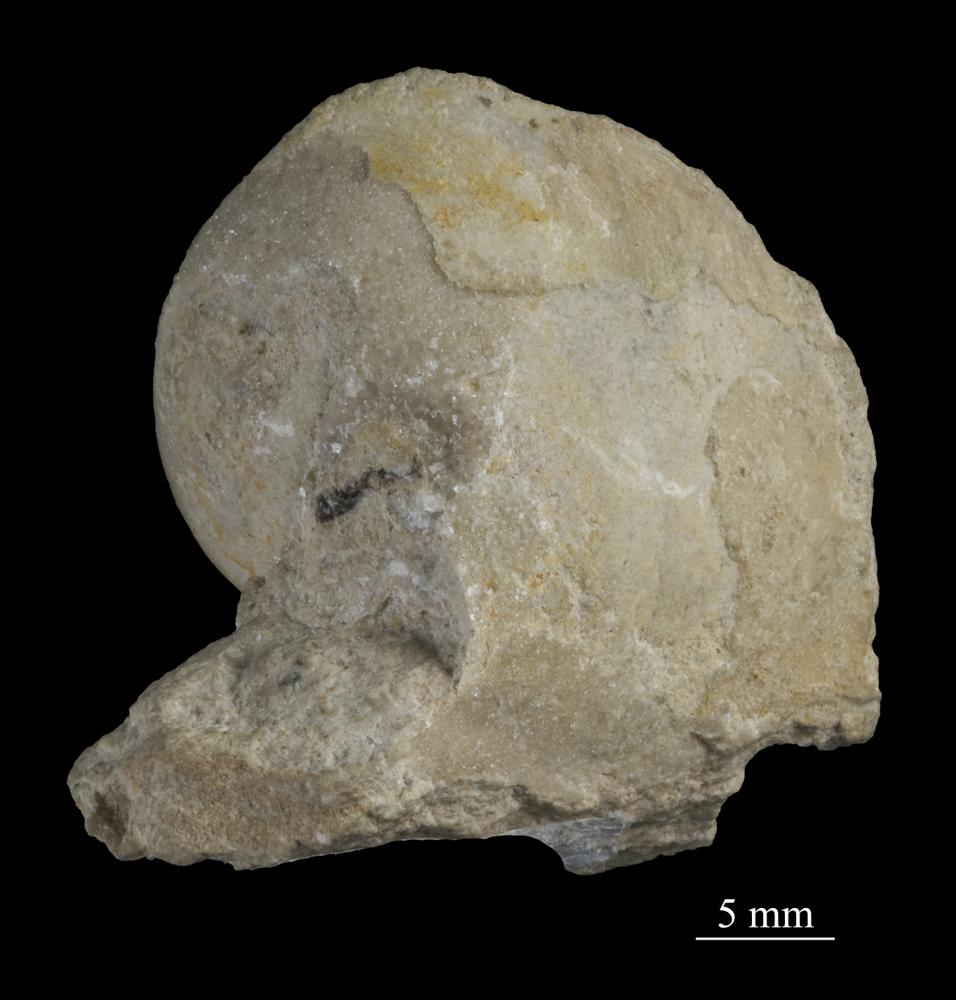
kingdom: Animalia
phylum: Mollusca
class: Gastropoda
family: Bellerophontidae
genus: Bellerophon
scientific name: Bellerophon
